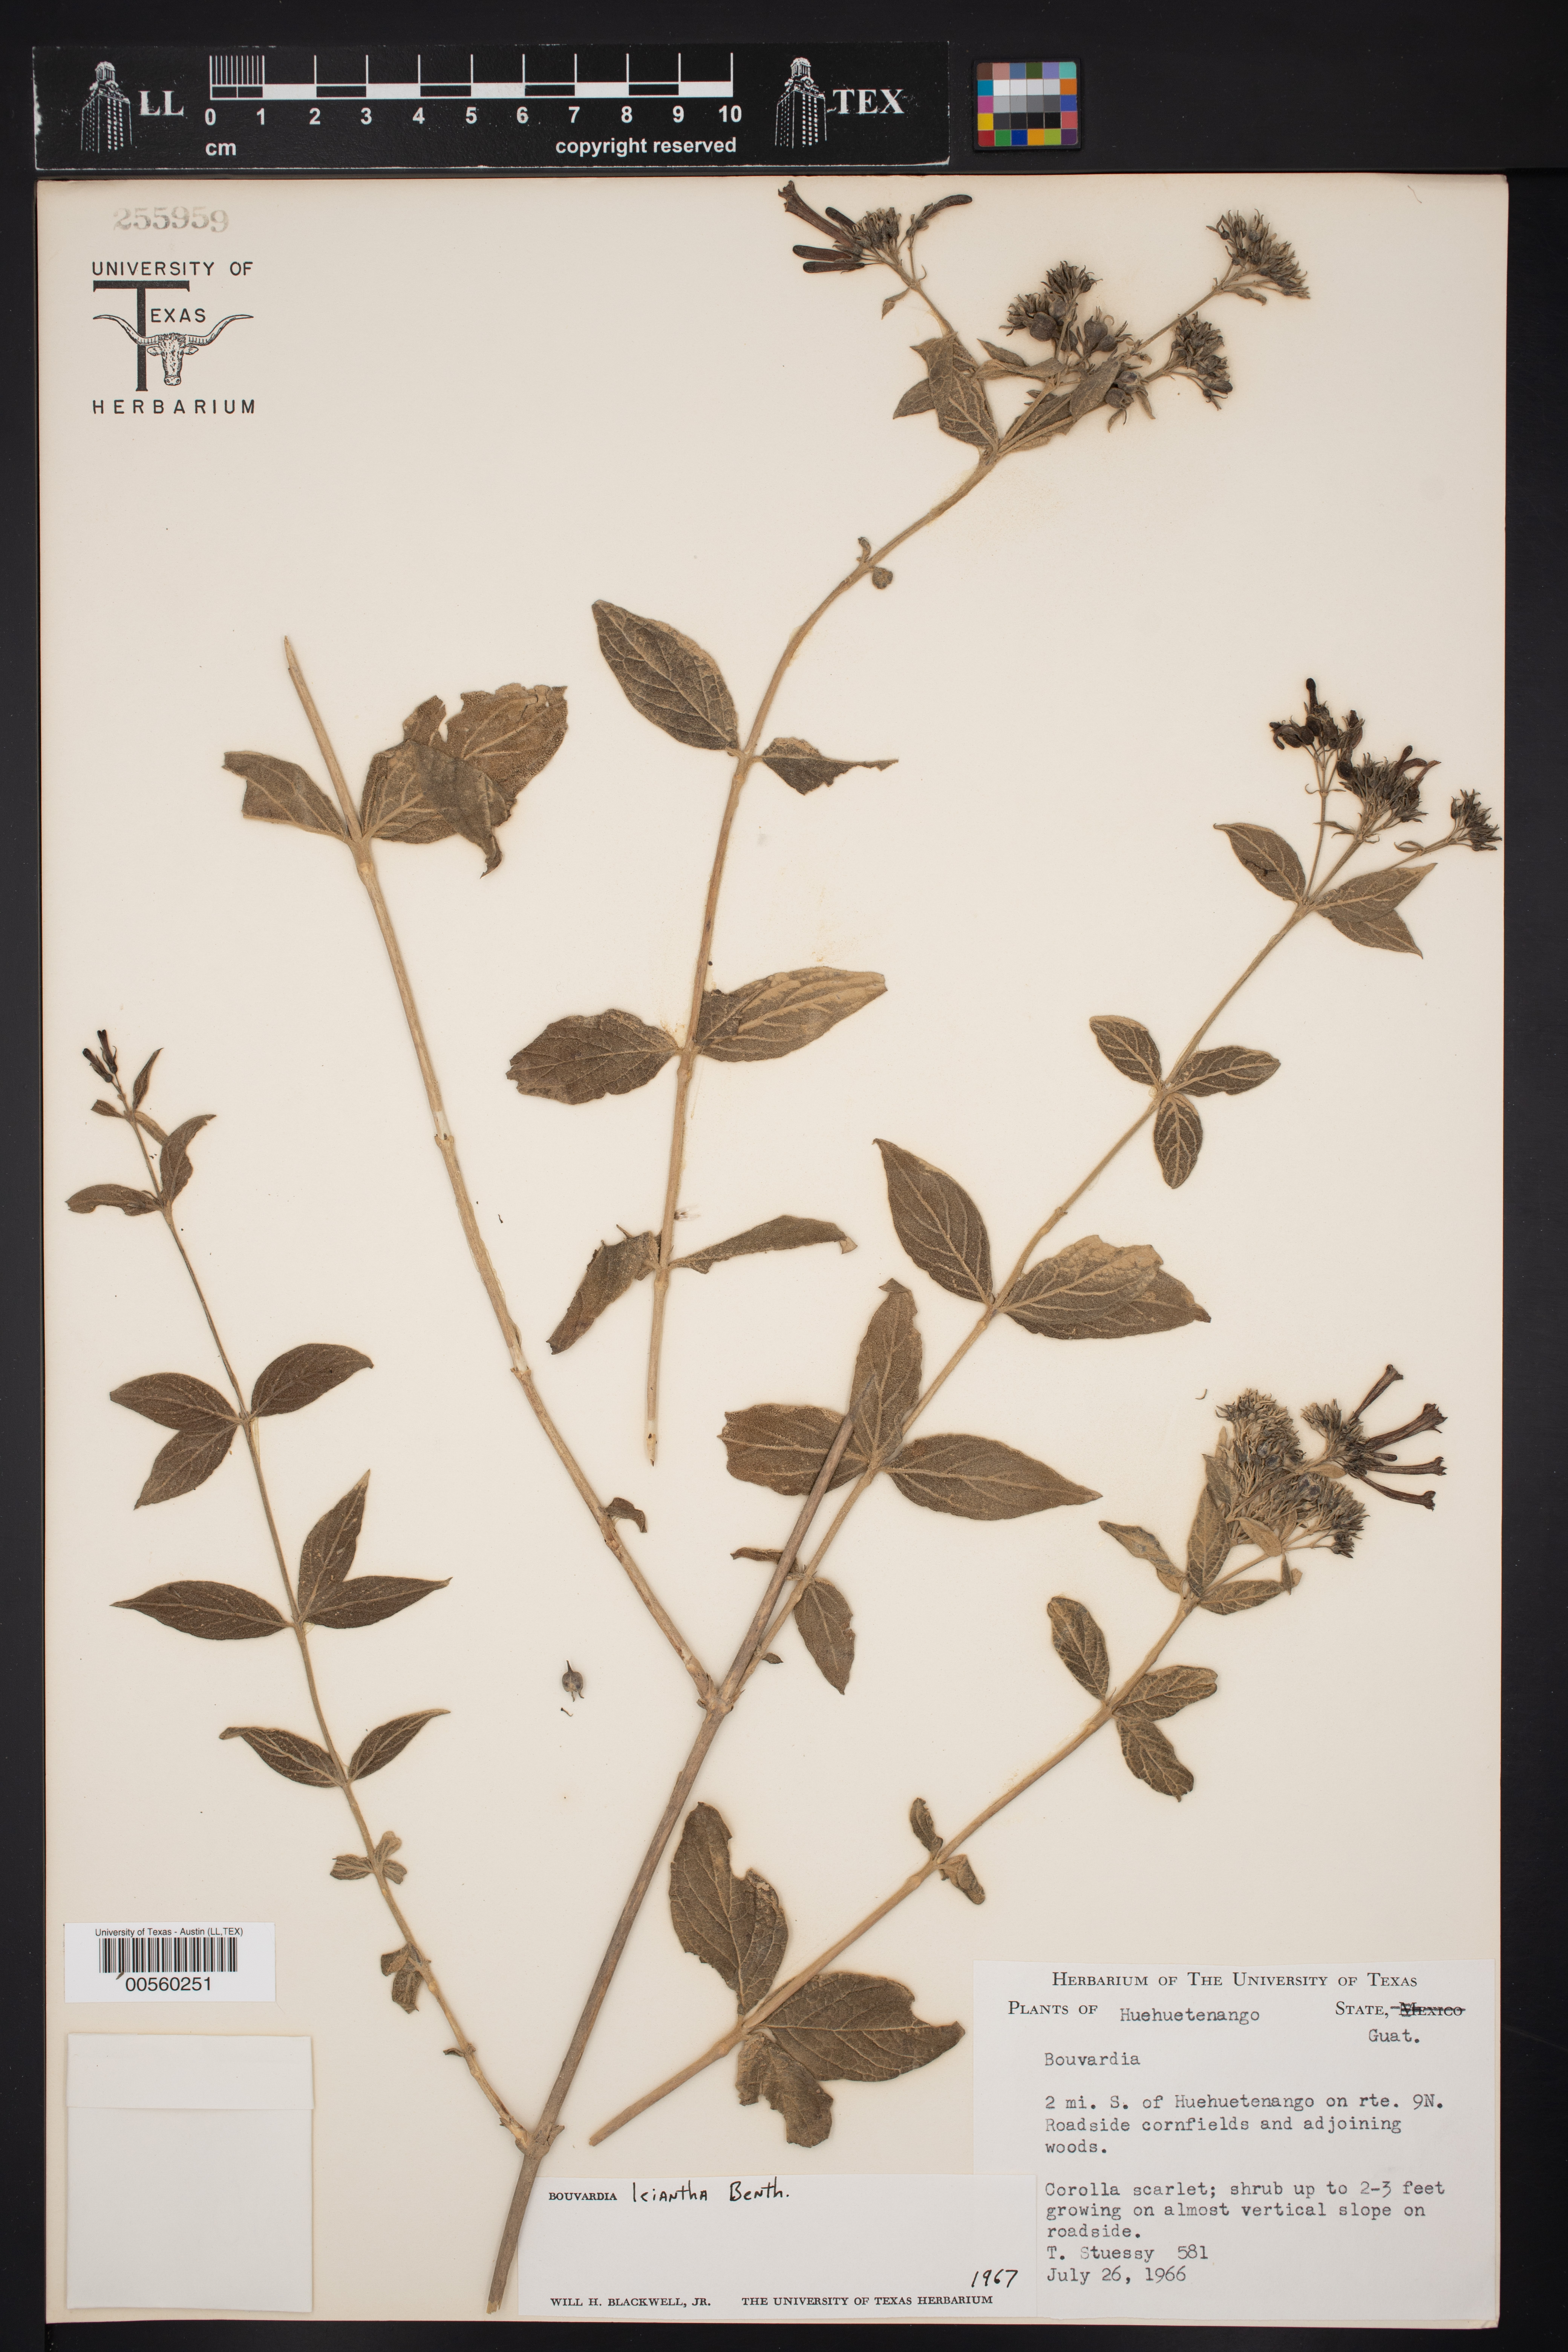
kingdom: Plantae
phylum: Tracheophyta
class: Magnoliopsida
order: Gentianales
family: Rubiaceae
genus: Bouvardia
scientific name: Bouvardia leiantha
